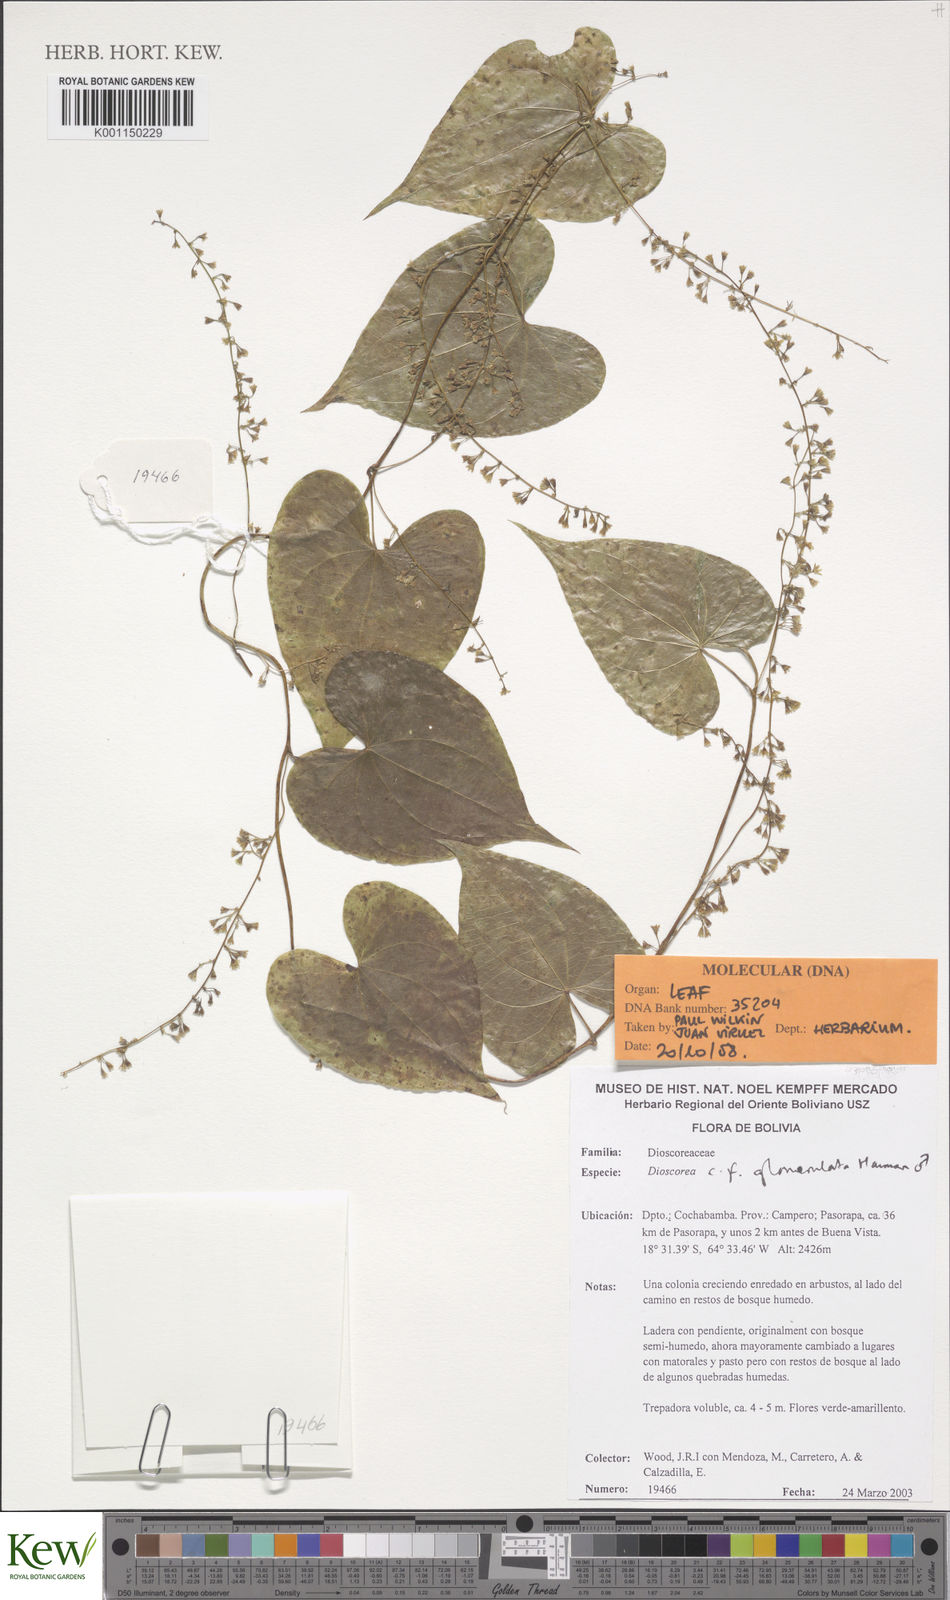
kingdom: Plantae
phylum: Tracheophyta
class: Liliopsida
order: Dioscoreales
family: Dioscoreaceae
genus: Dioscorea
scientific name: Dioscorea glomerulata
